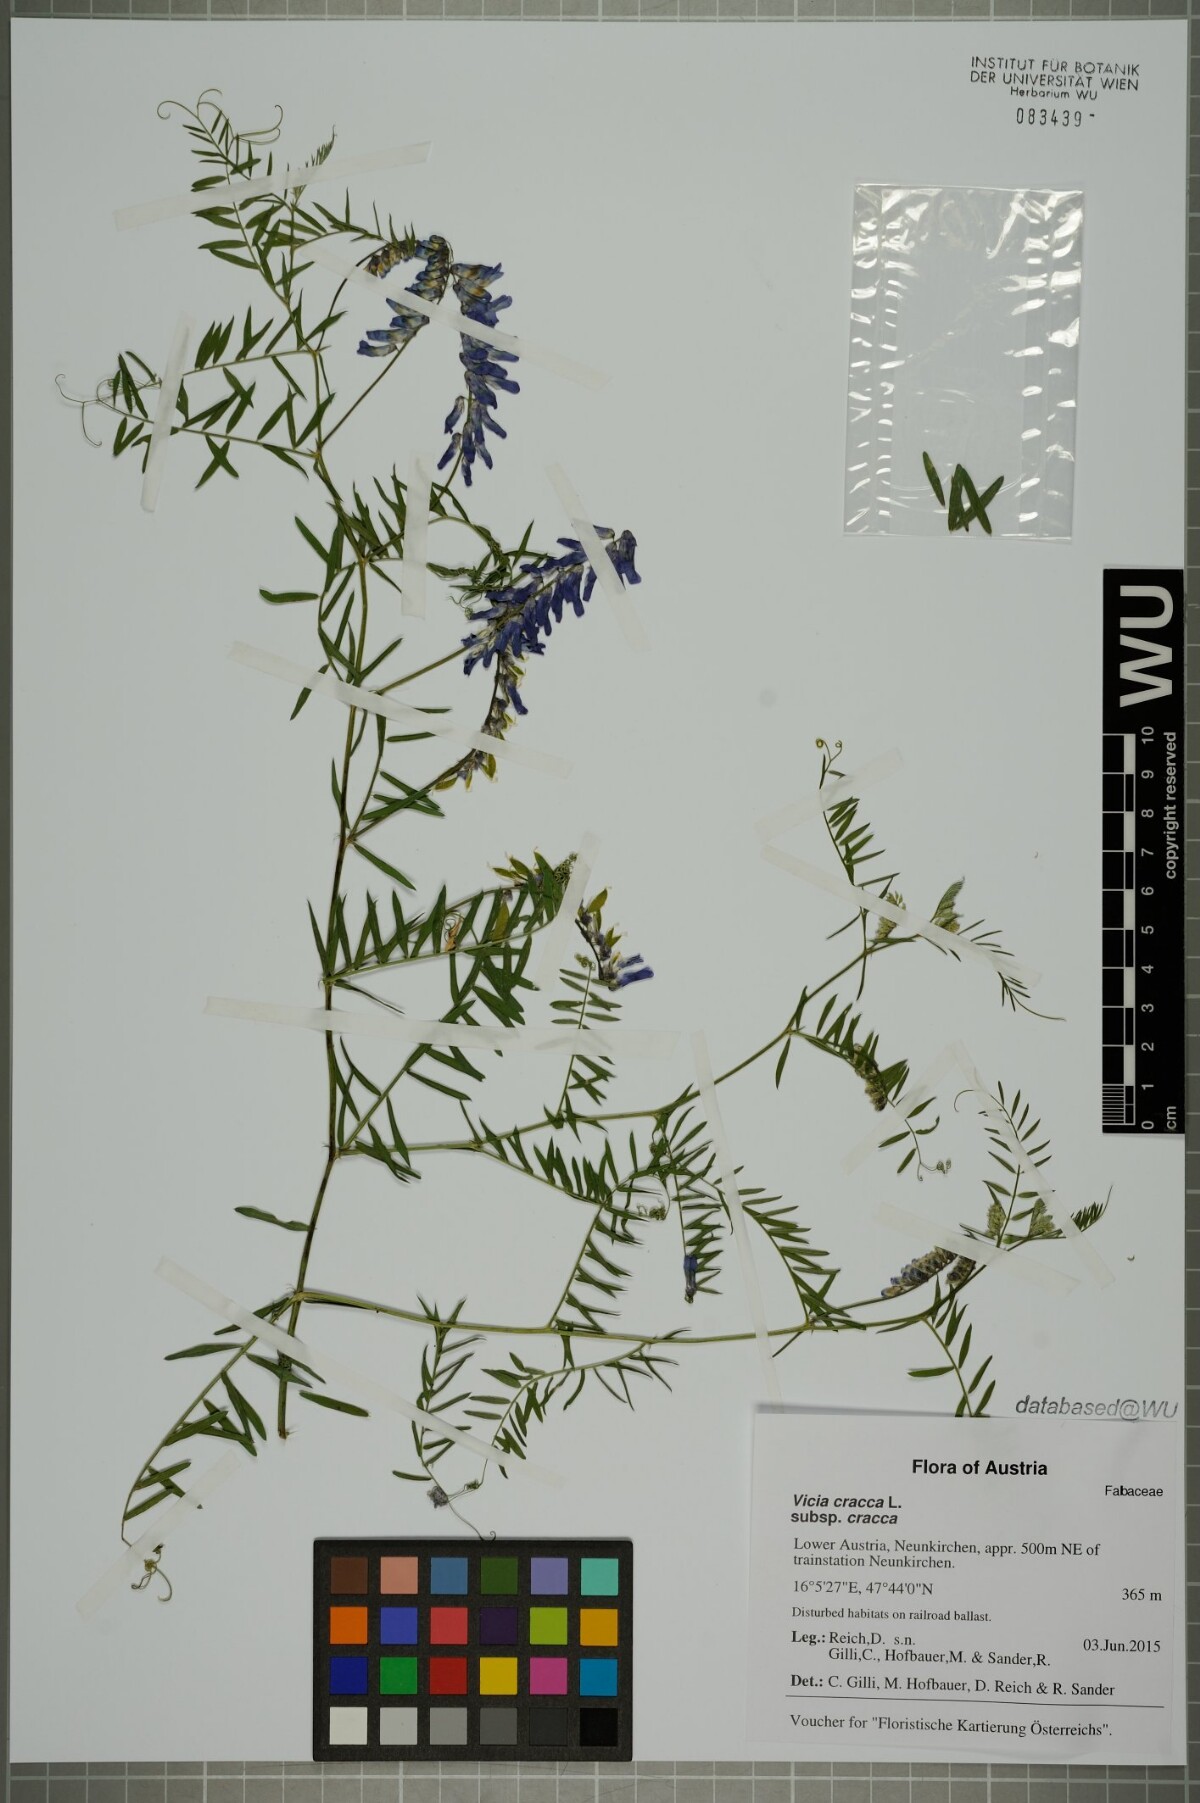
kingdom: Plantae
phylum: Tracheophyta
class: Magnoliopsida
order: Fabales
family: Fabaceae
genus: Vicia
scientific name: Vicia cracca
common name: Bird vetch
